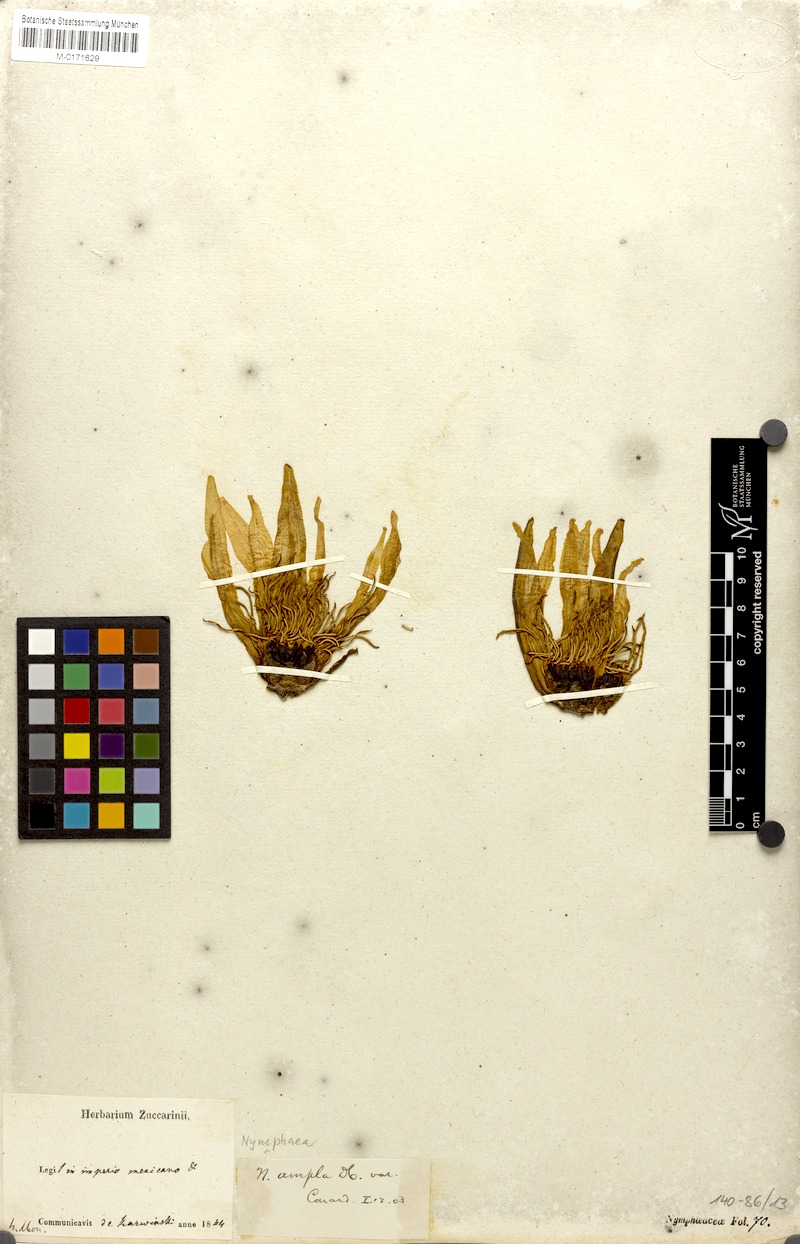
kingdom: Plantae
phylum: Tracheophyta
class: Magnoliopsida
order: Nymphaeales
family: Nymphaeaceae
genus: Nymphaea
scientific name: Nymphaea ampla
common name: Dotleaf waterlily
